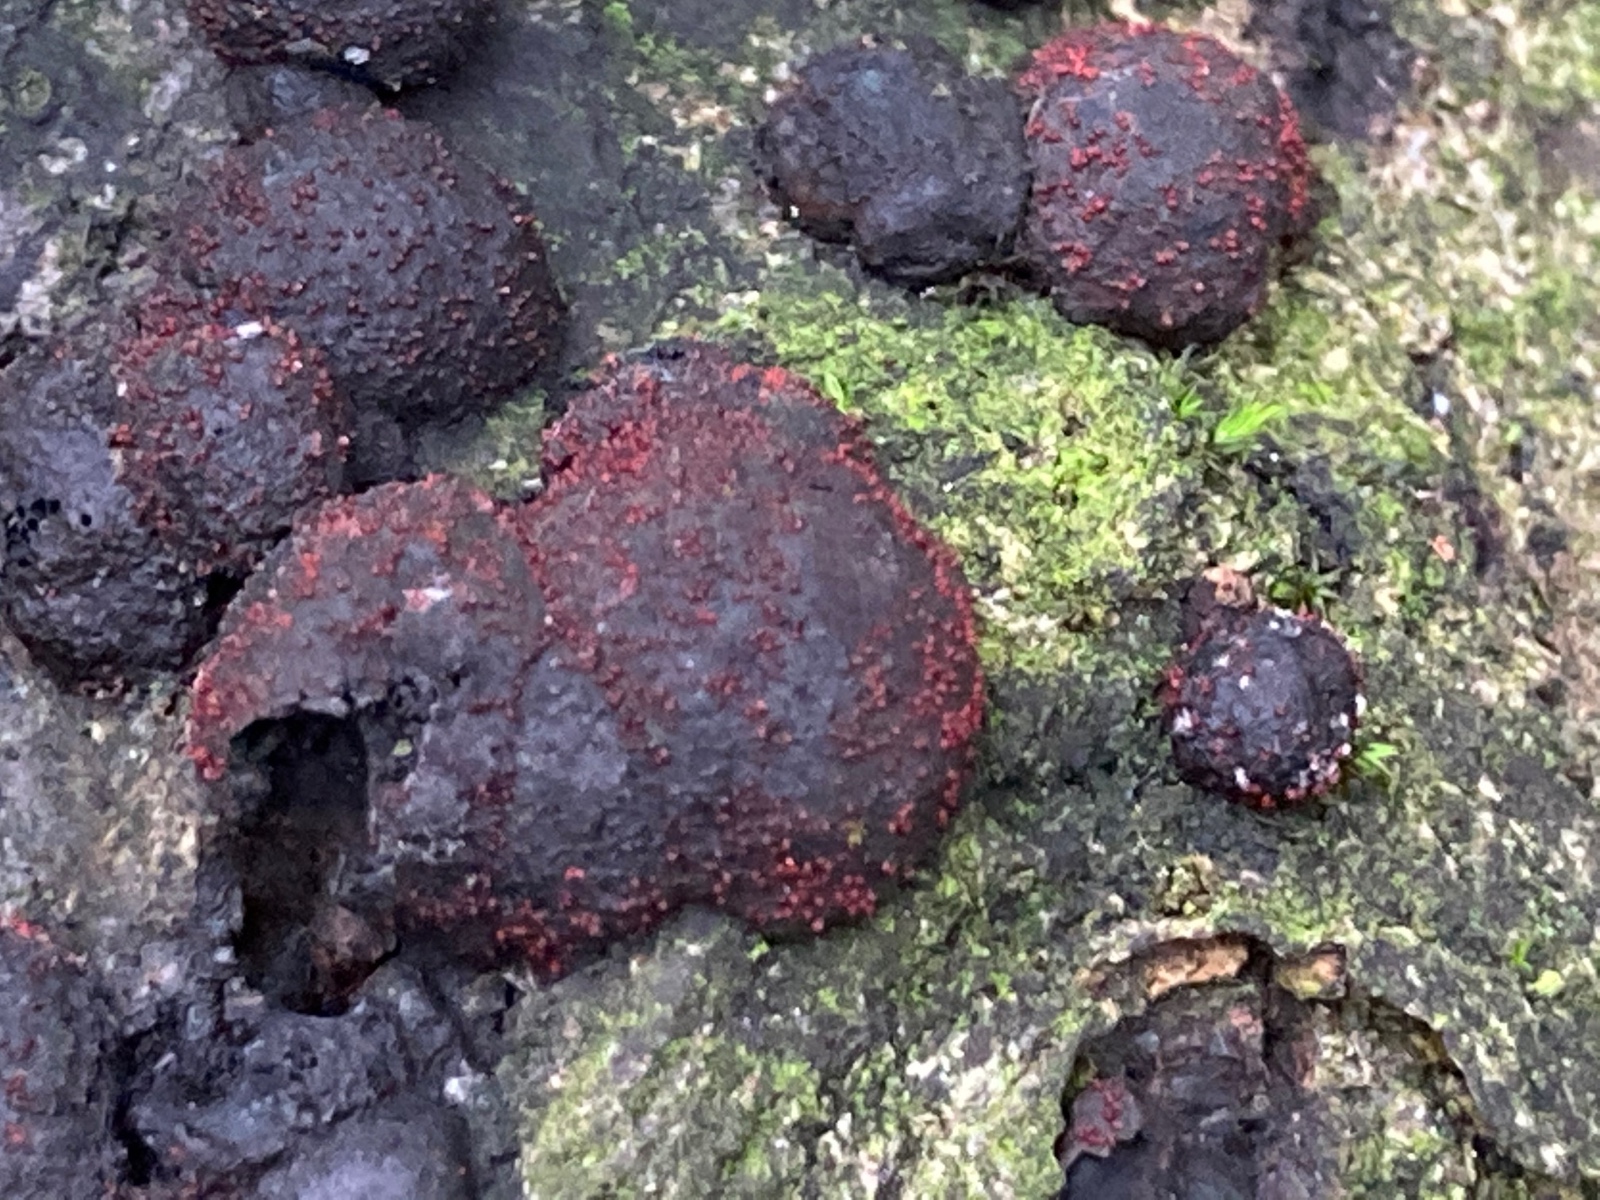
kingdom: Fungi
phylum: Ascomycota
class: Sordariomycetes
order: Hypocreales
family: Nectriaceae
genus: Cosmospora
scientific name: Cosmospora arxii
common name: kuljordbær-cinnobersvamp
